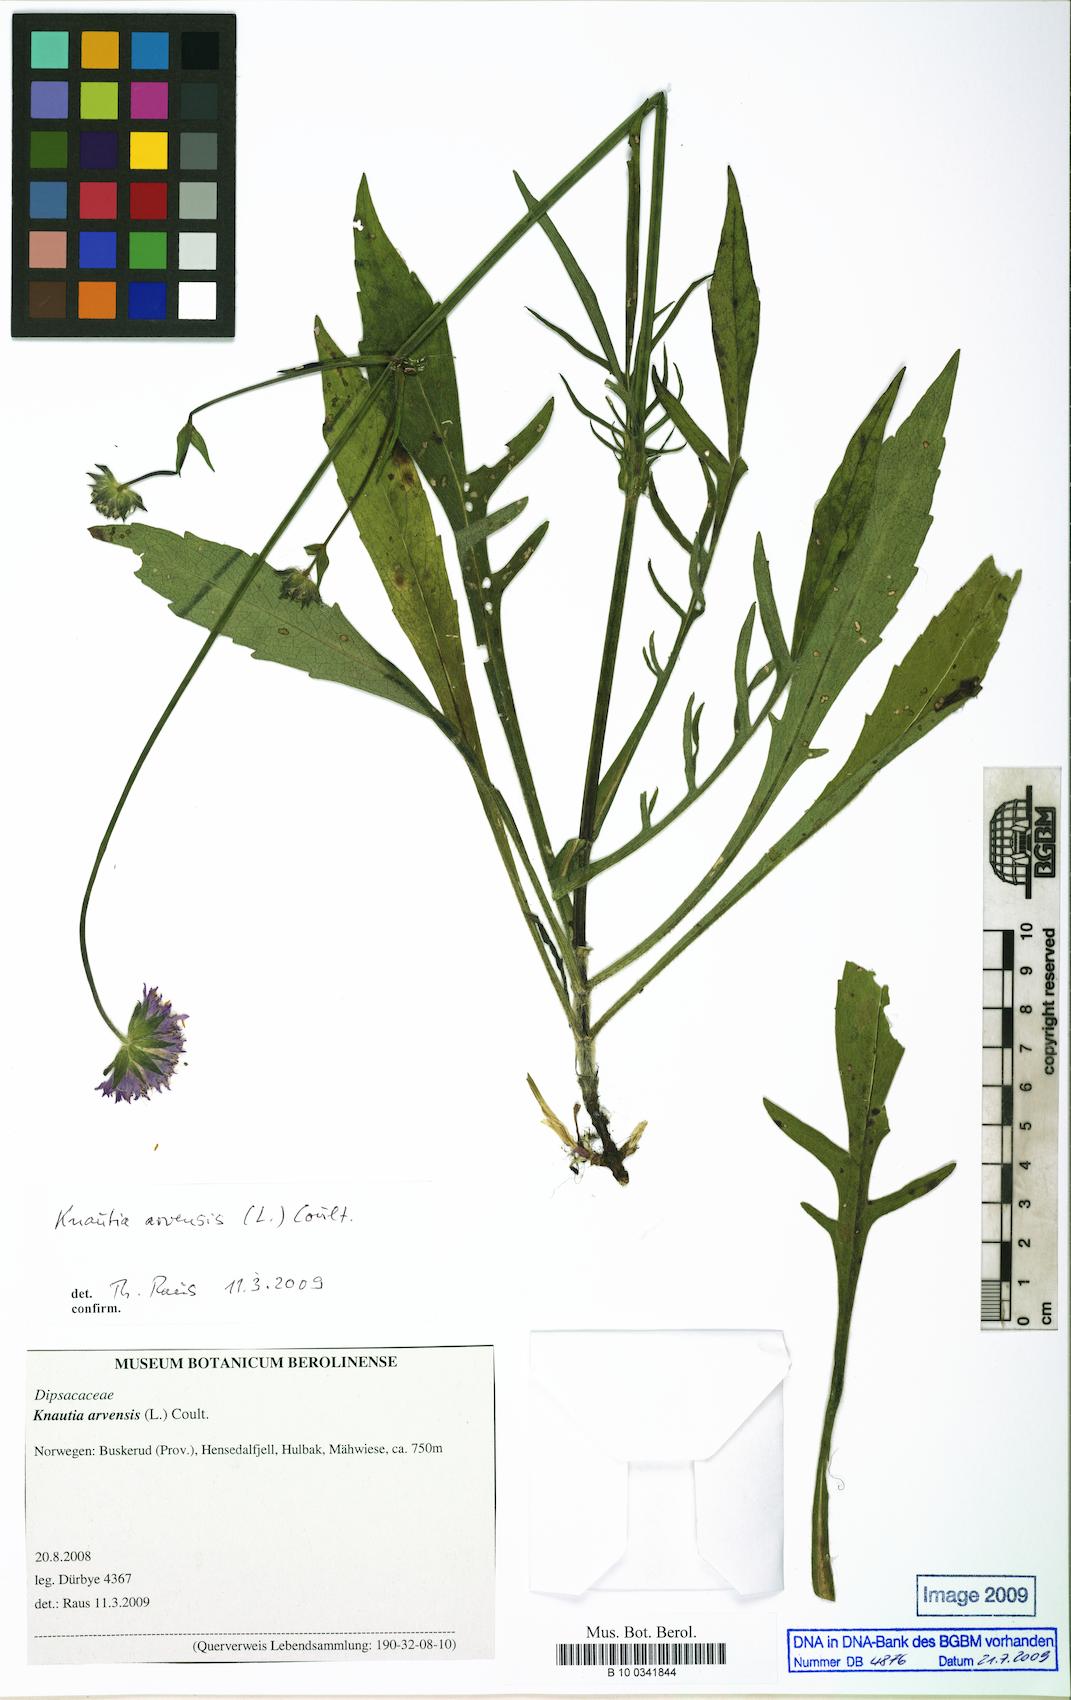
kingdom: Plantae
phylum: Tracheophyta
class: Magnoliopsida
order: Dipsacales
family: Caprifoliaceae
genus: Knautia
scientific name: Knautia arvensis
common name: Field scabiosa
